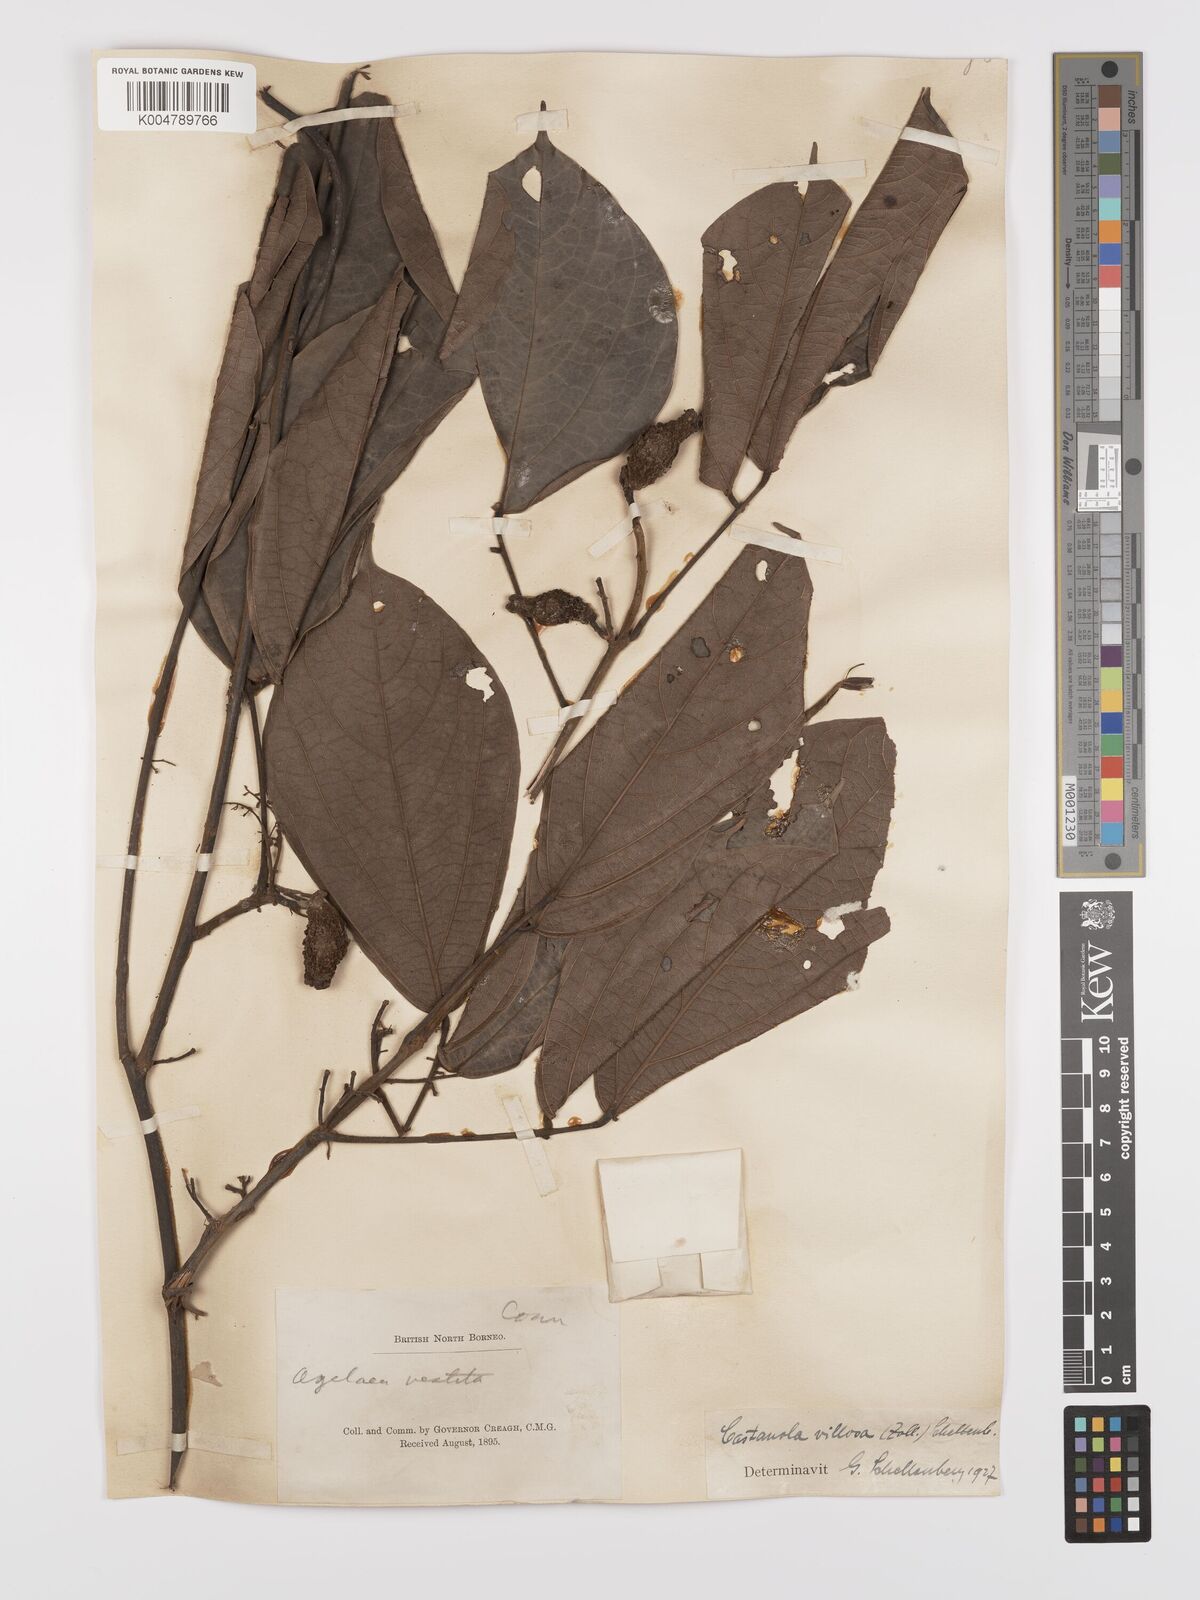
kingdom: Plantae
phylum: Tracheophyta
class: Magnoliopsida
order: Oxalidales
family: Connaraceae
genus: Agelaea
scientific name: Agelaea borneensis
